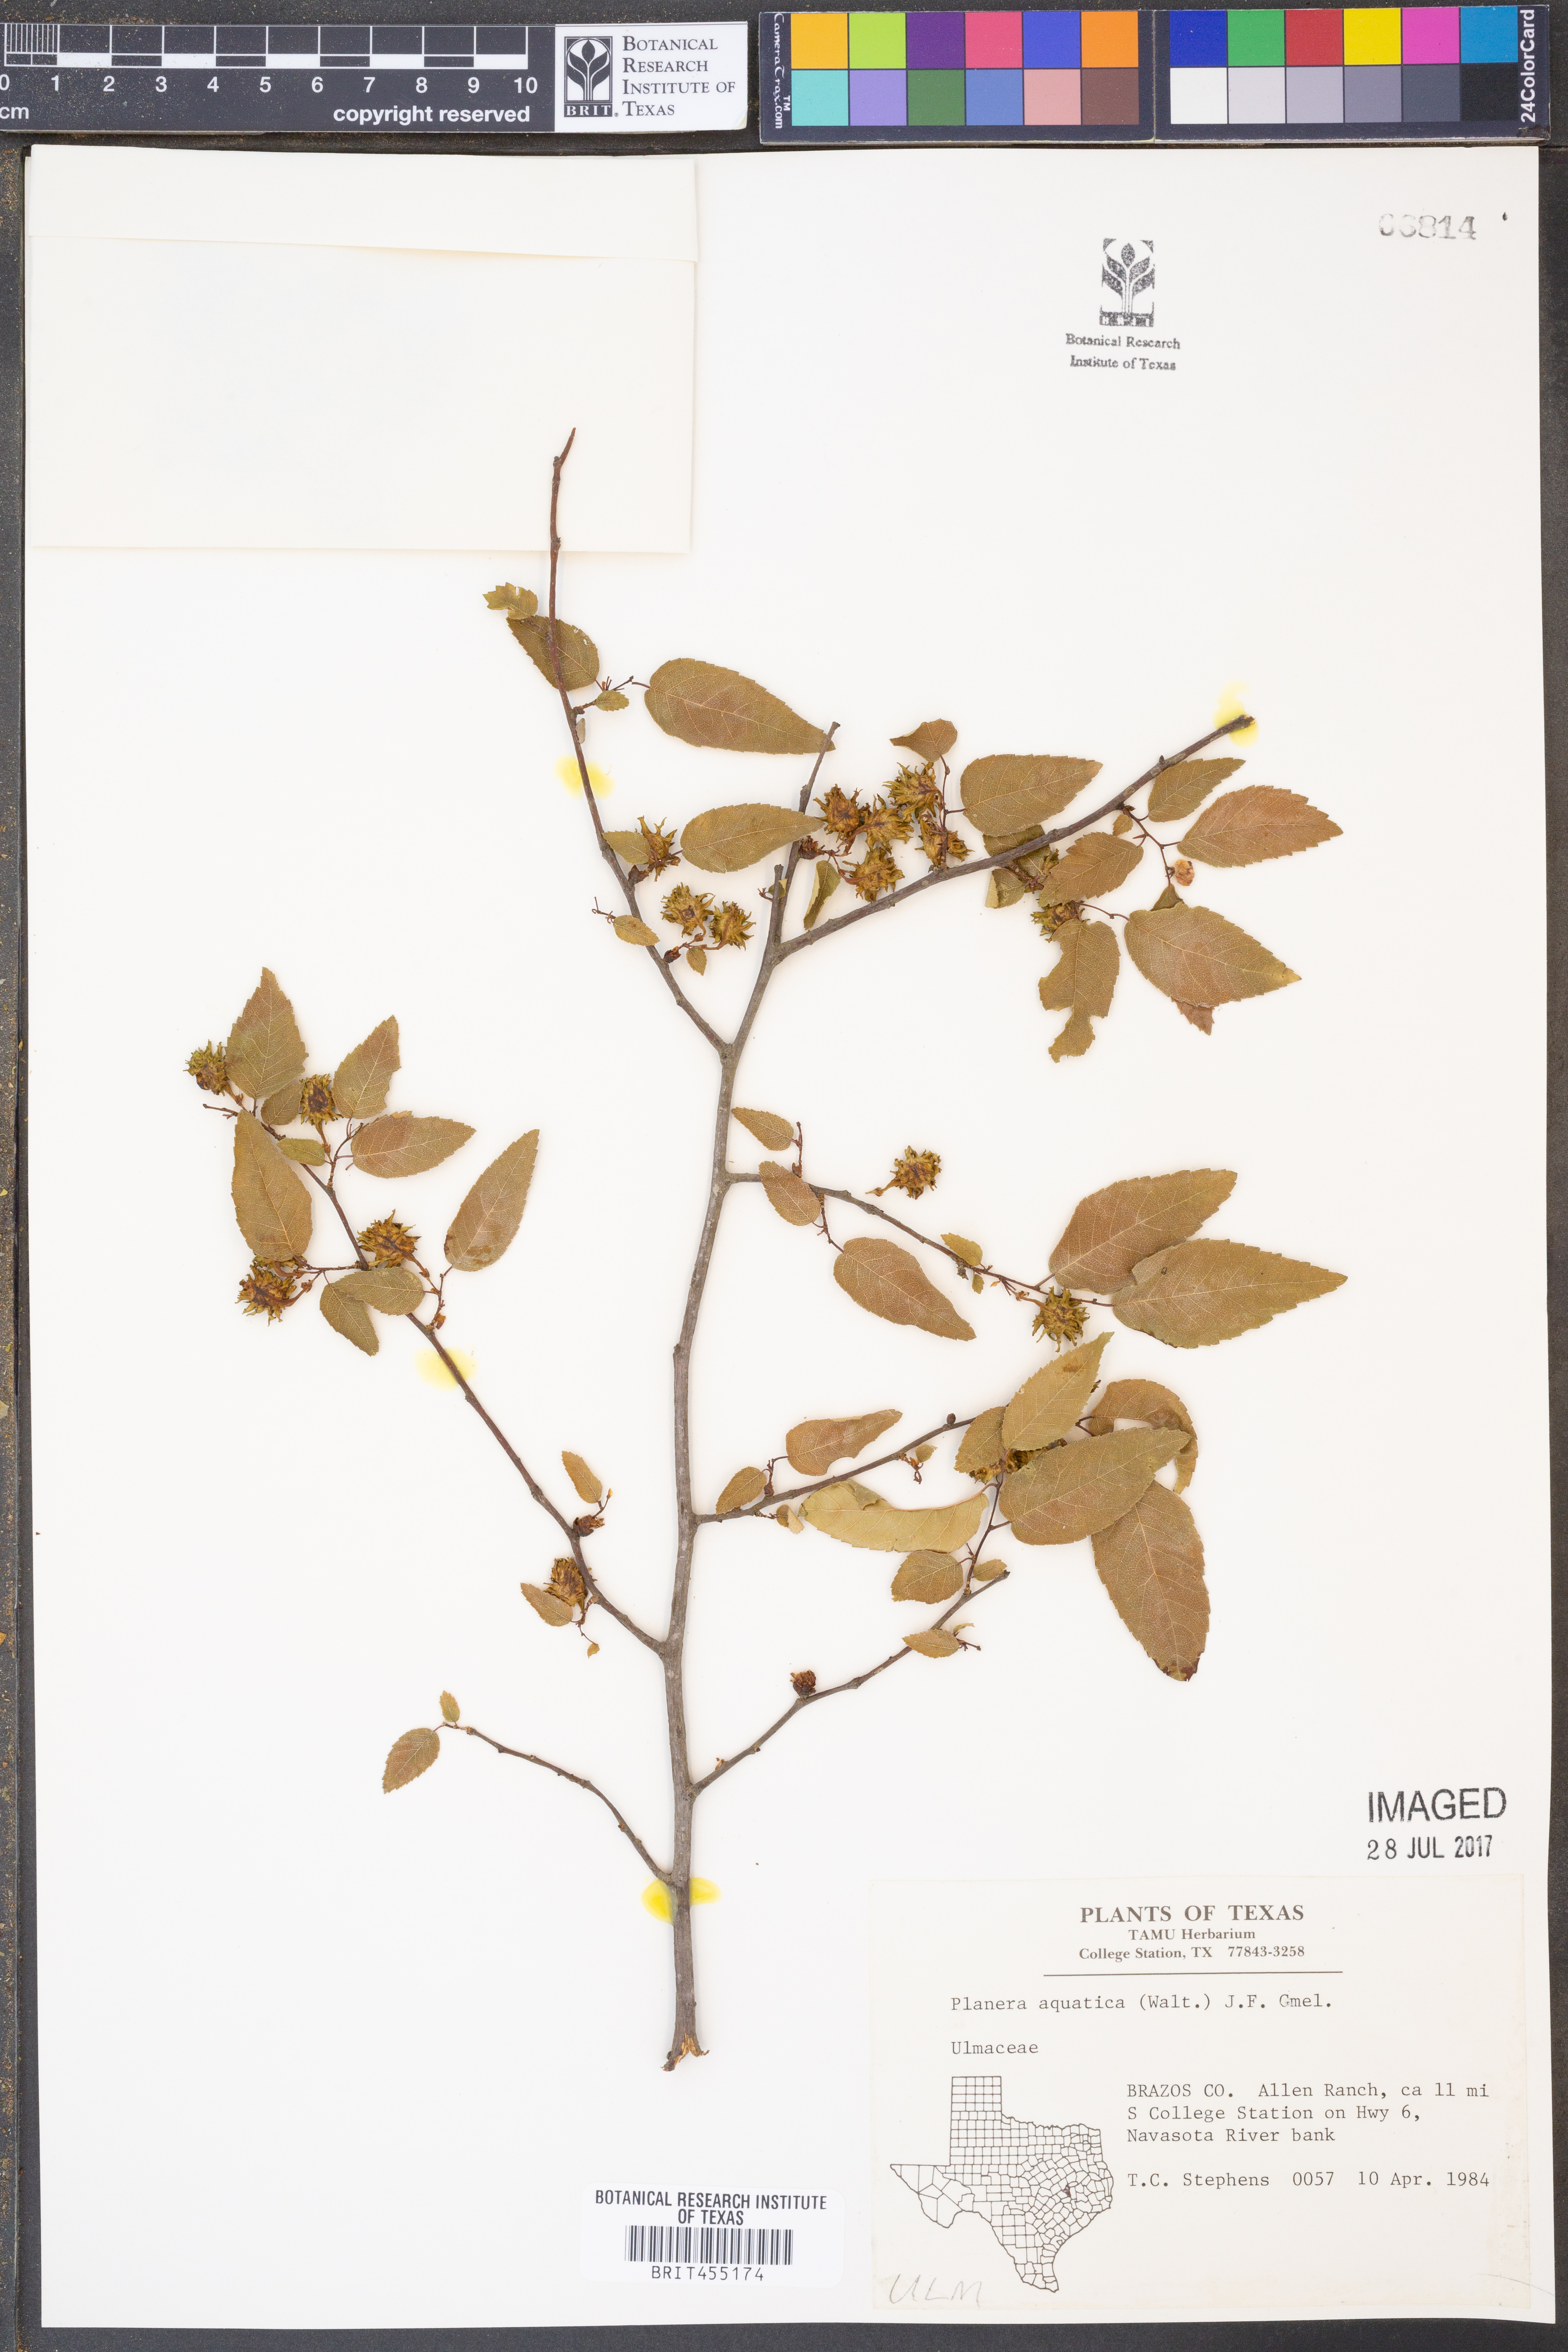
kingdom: Plantae
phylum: Tracheophyta
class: Magnoliopsida
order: Rosales
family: Ulmaceae
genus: Planera
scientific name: Planera aquatica
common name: Water-elm
